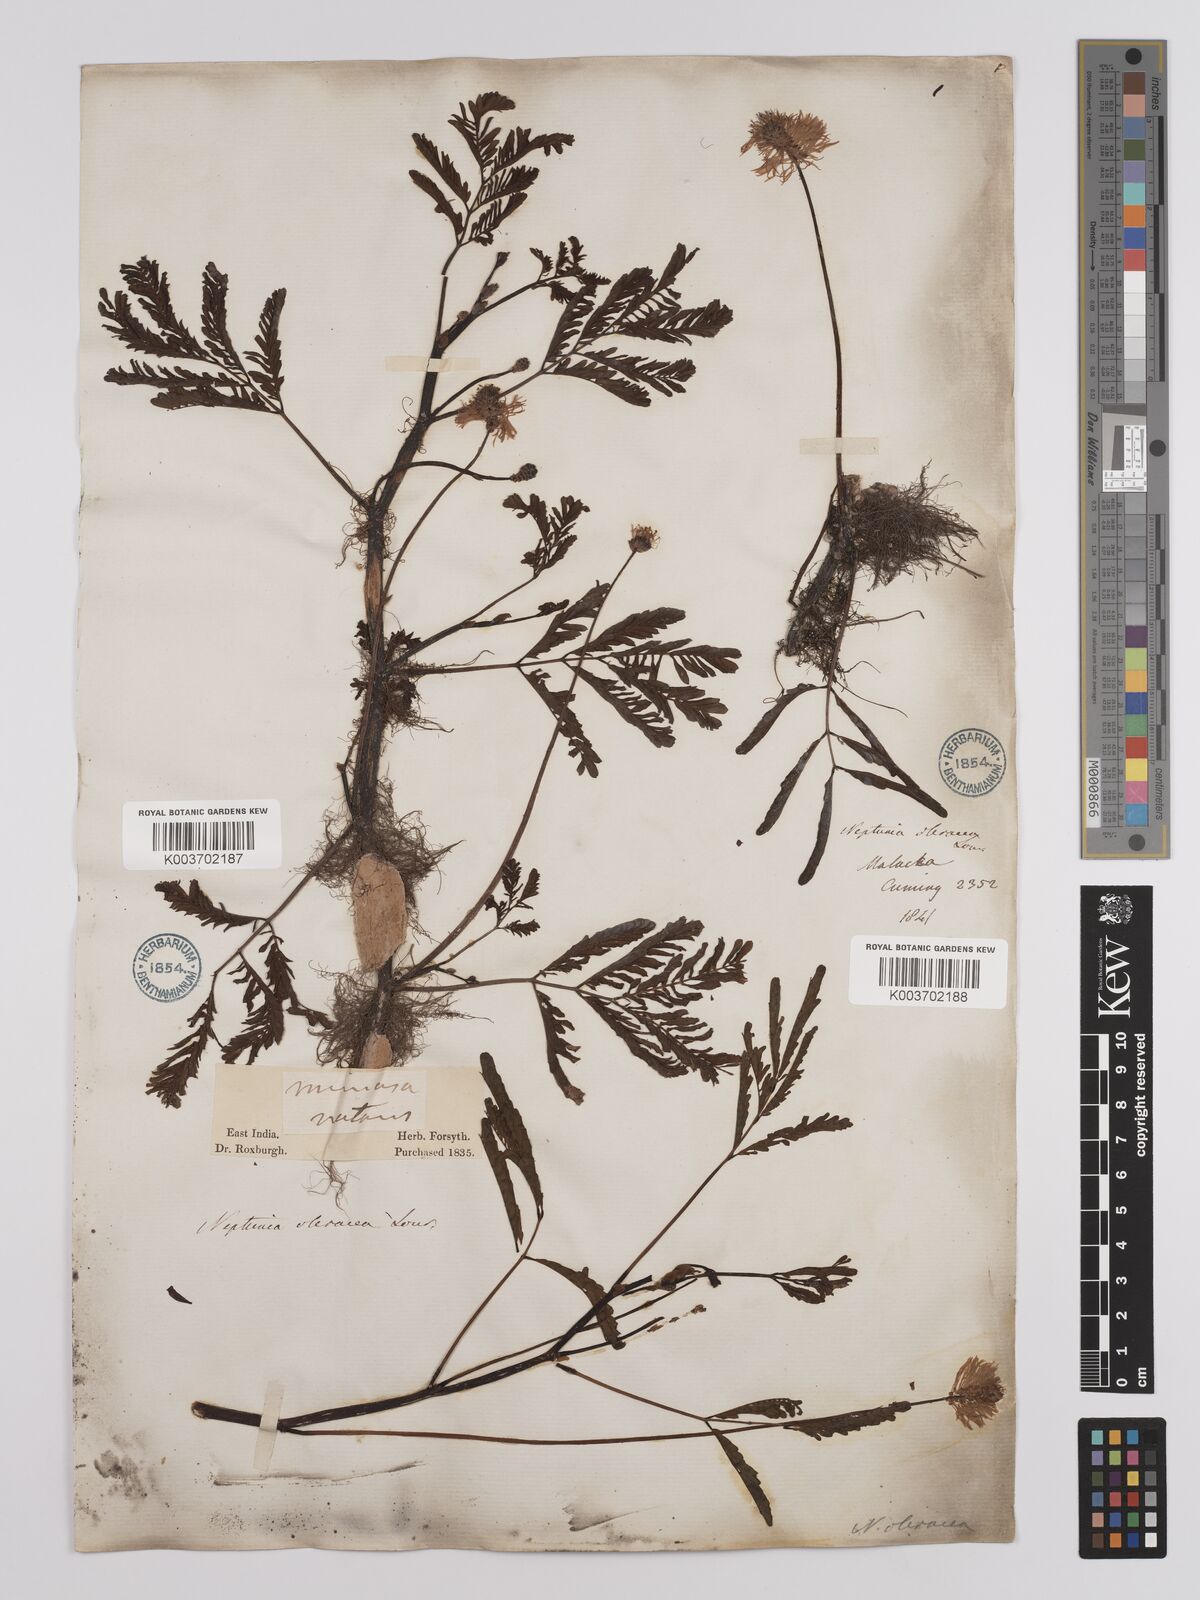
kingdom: Plantae
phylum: Tracheophyta
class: Magnoliopsida
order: Fabales
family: Fabaceae
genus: Neptunia
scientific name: Neptunia prostrata
